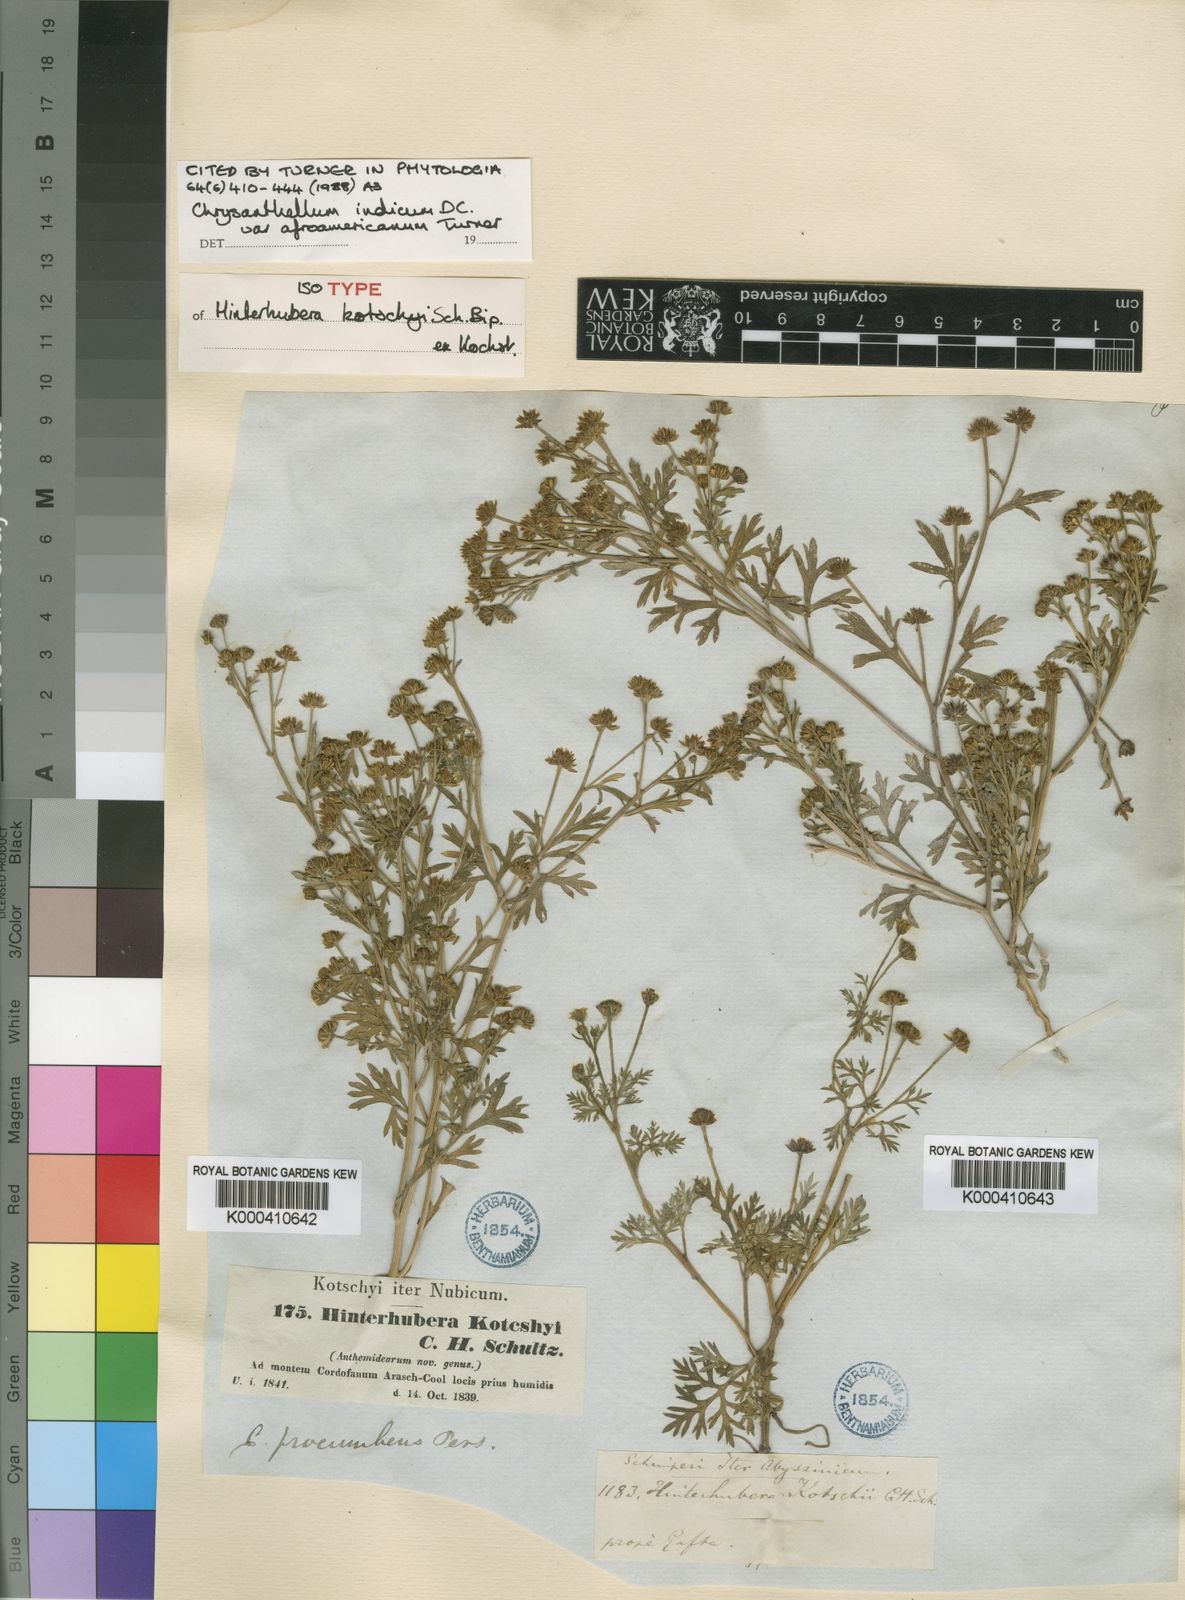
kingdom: Plantae
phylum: Tracheophyta
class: Magnoliopsida
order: Asterales
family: Asteraceae
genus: Chrysanthellum
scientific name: Chrysanthellum indicum
